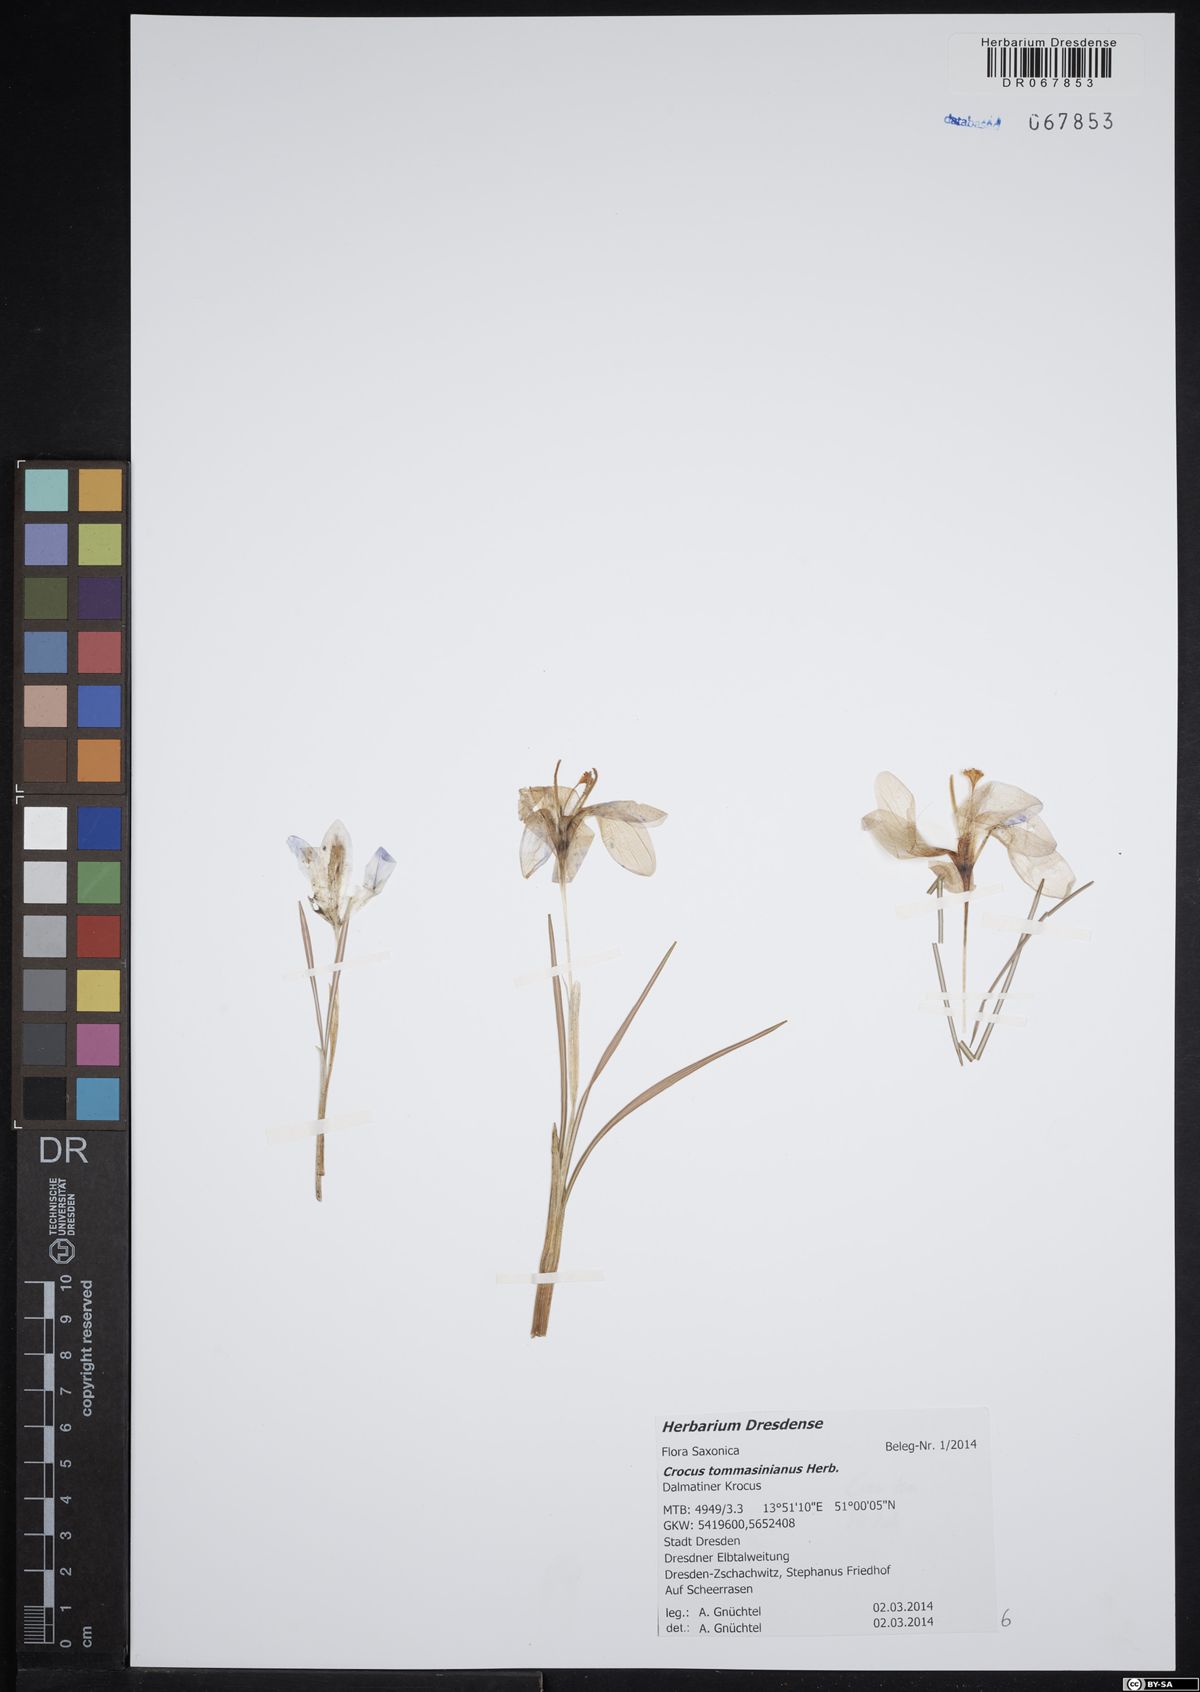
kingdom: Plantae
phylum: Tracheophyta
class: Liliopsida
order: Asparagales
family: Iridaceae
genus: Crocus
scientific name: Crocus tommasinianus
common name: Early crocus
